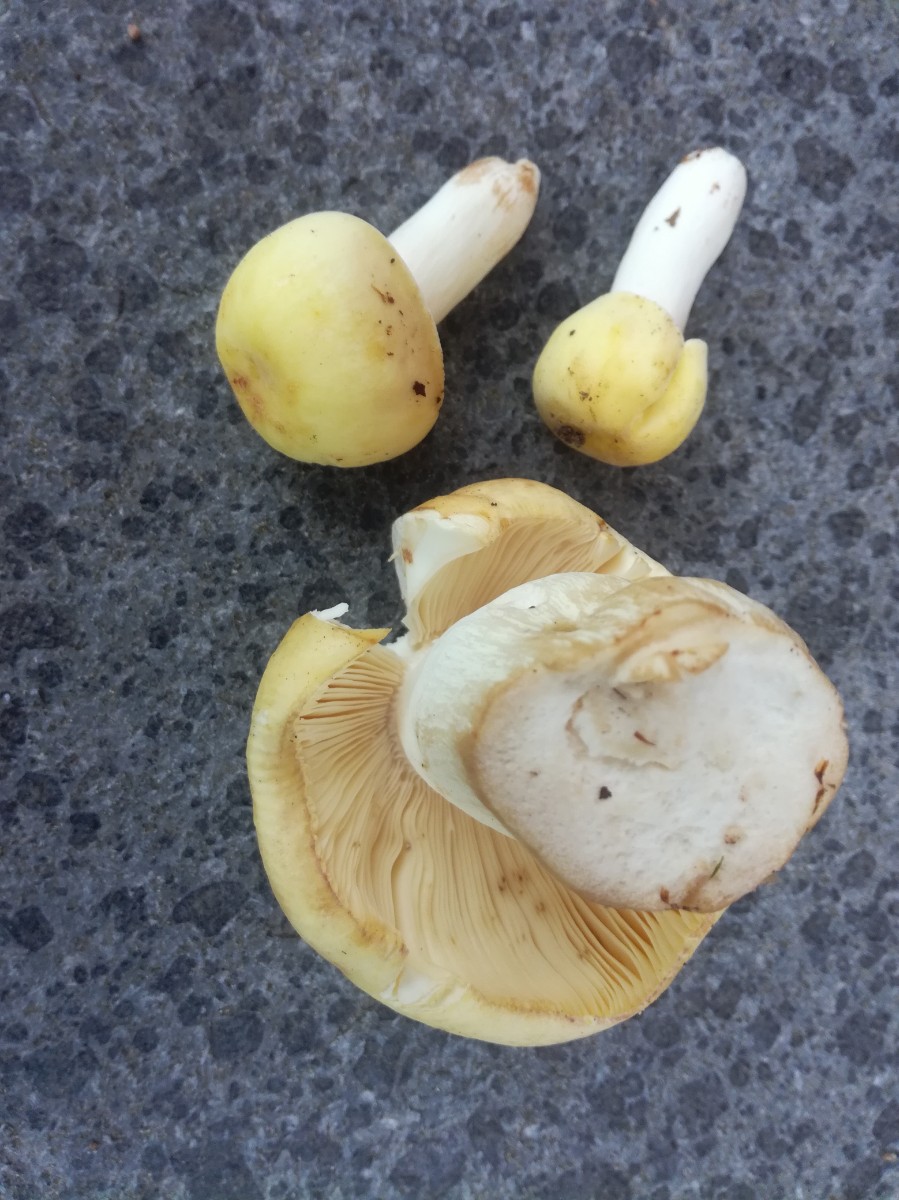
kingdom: Fungi
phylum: Basidiomycota
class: Agaricomycetes
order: Russulales
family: Russulaceae
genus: Russula
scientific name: Russula violeipes
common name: ferskengul skørhat
